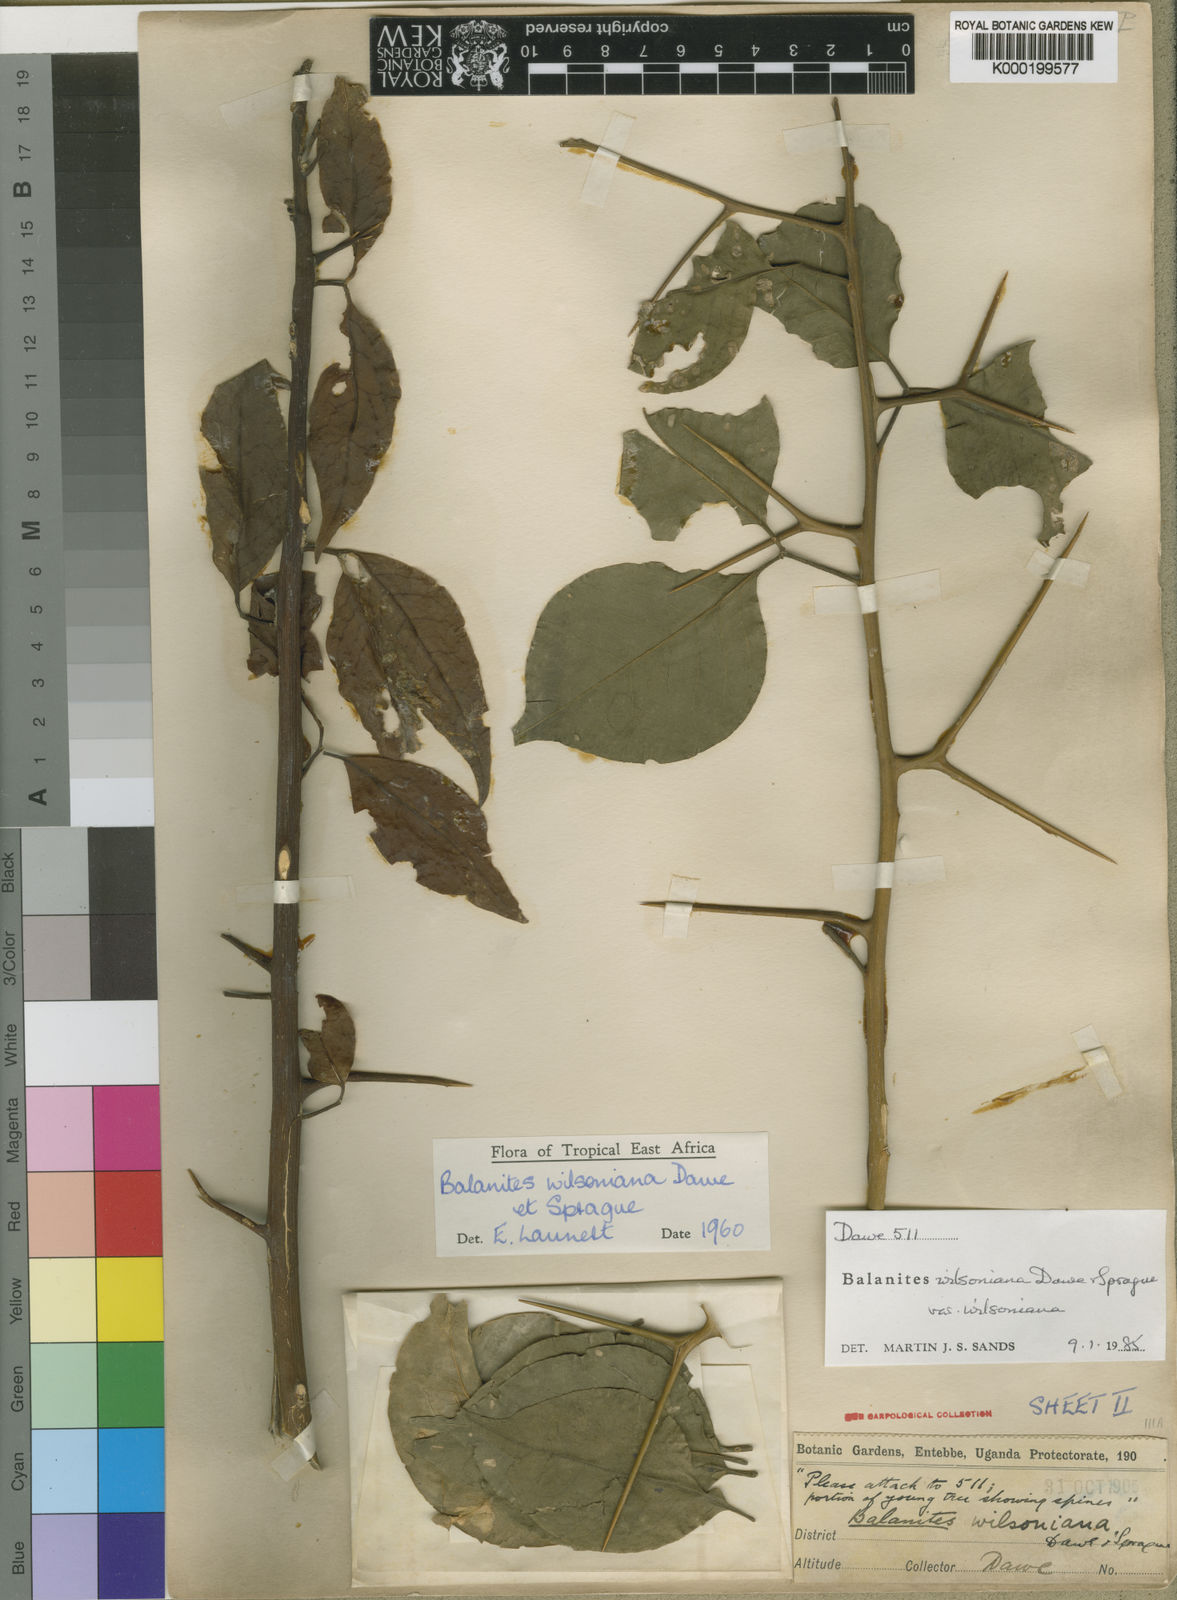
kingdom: Plantae
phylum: Tracheophyta
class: Magnoliopsida
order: Zygophyllales
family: Zygophyllaceae
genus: Balanites
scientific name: Balanites wilsoniana
